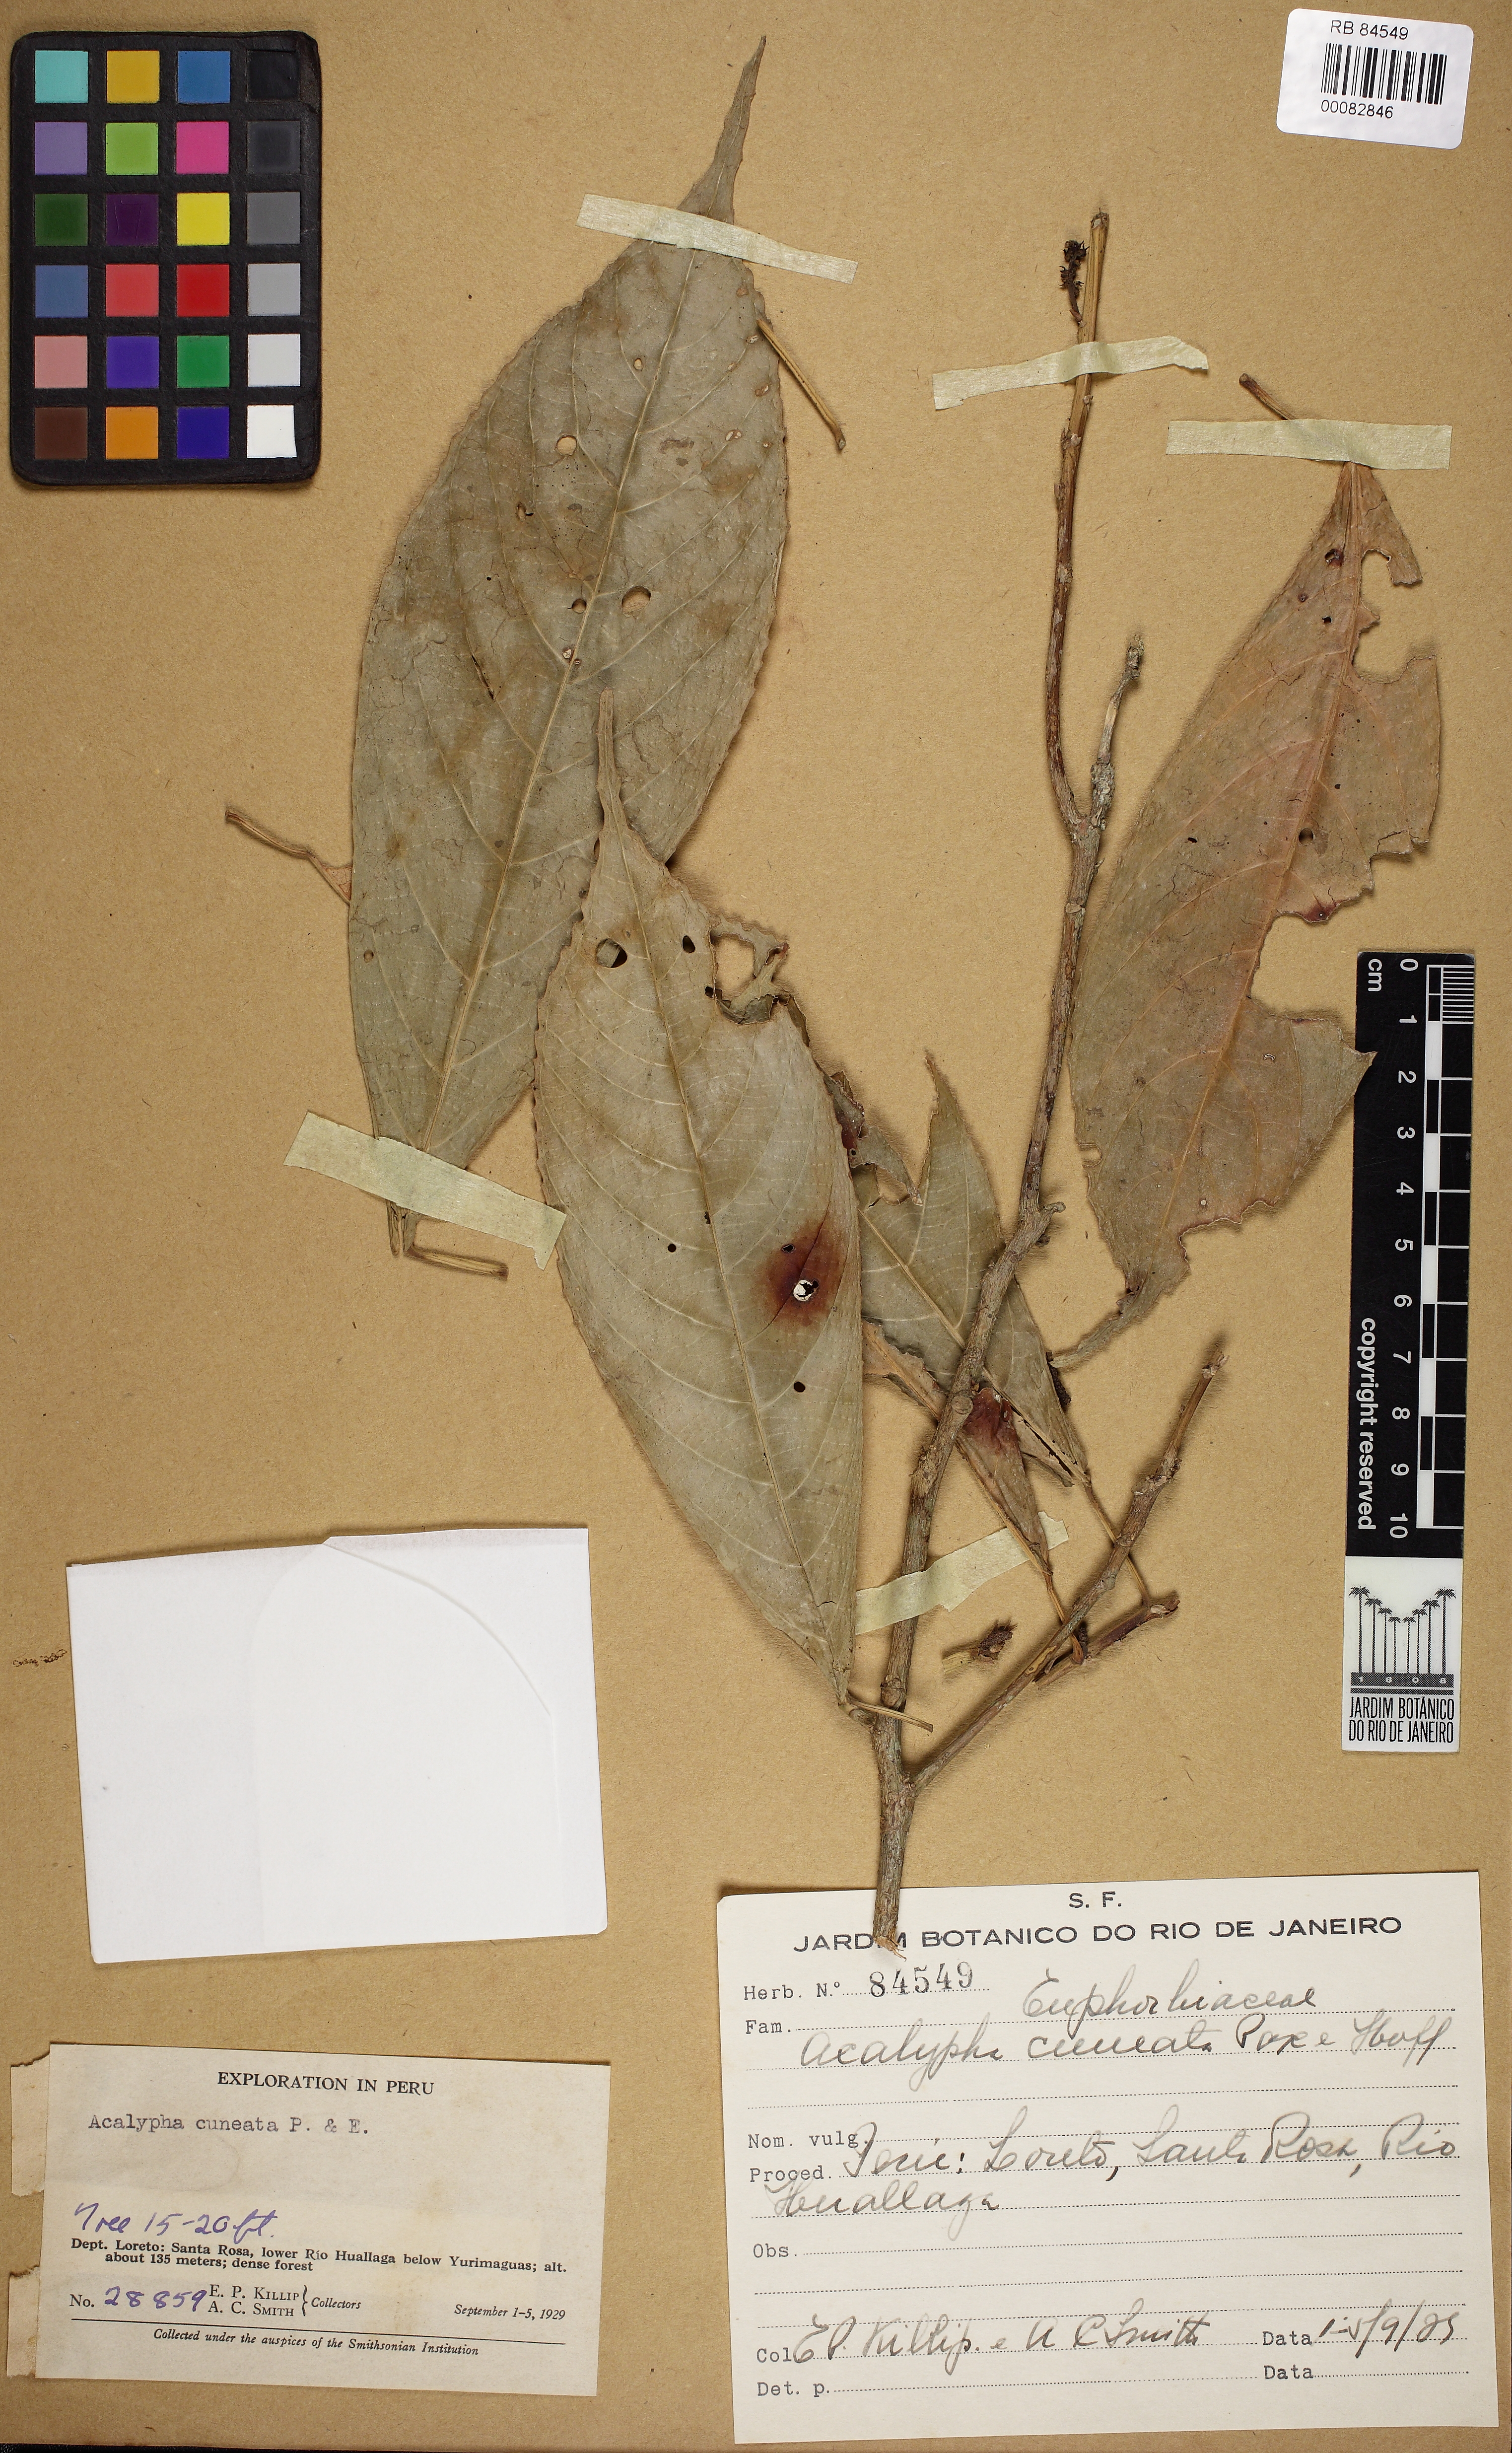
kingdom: Plantae
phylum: Tracheophyta
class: Magnoliopsida
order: Malpighiales
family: Euphorbiaceae
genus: Acalypha
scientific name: Acalypha cuneata
